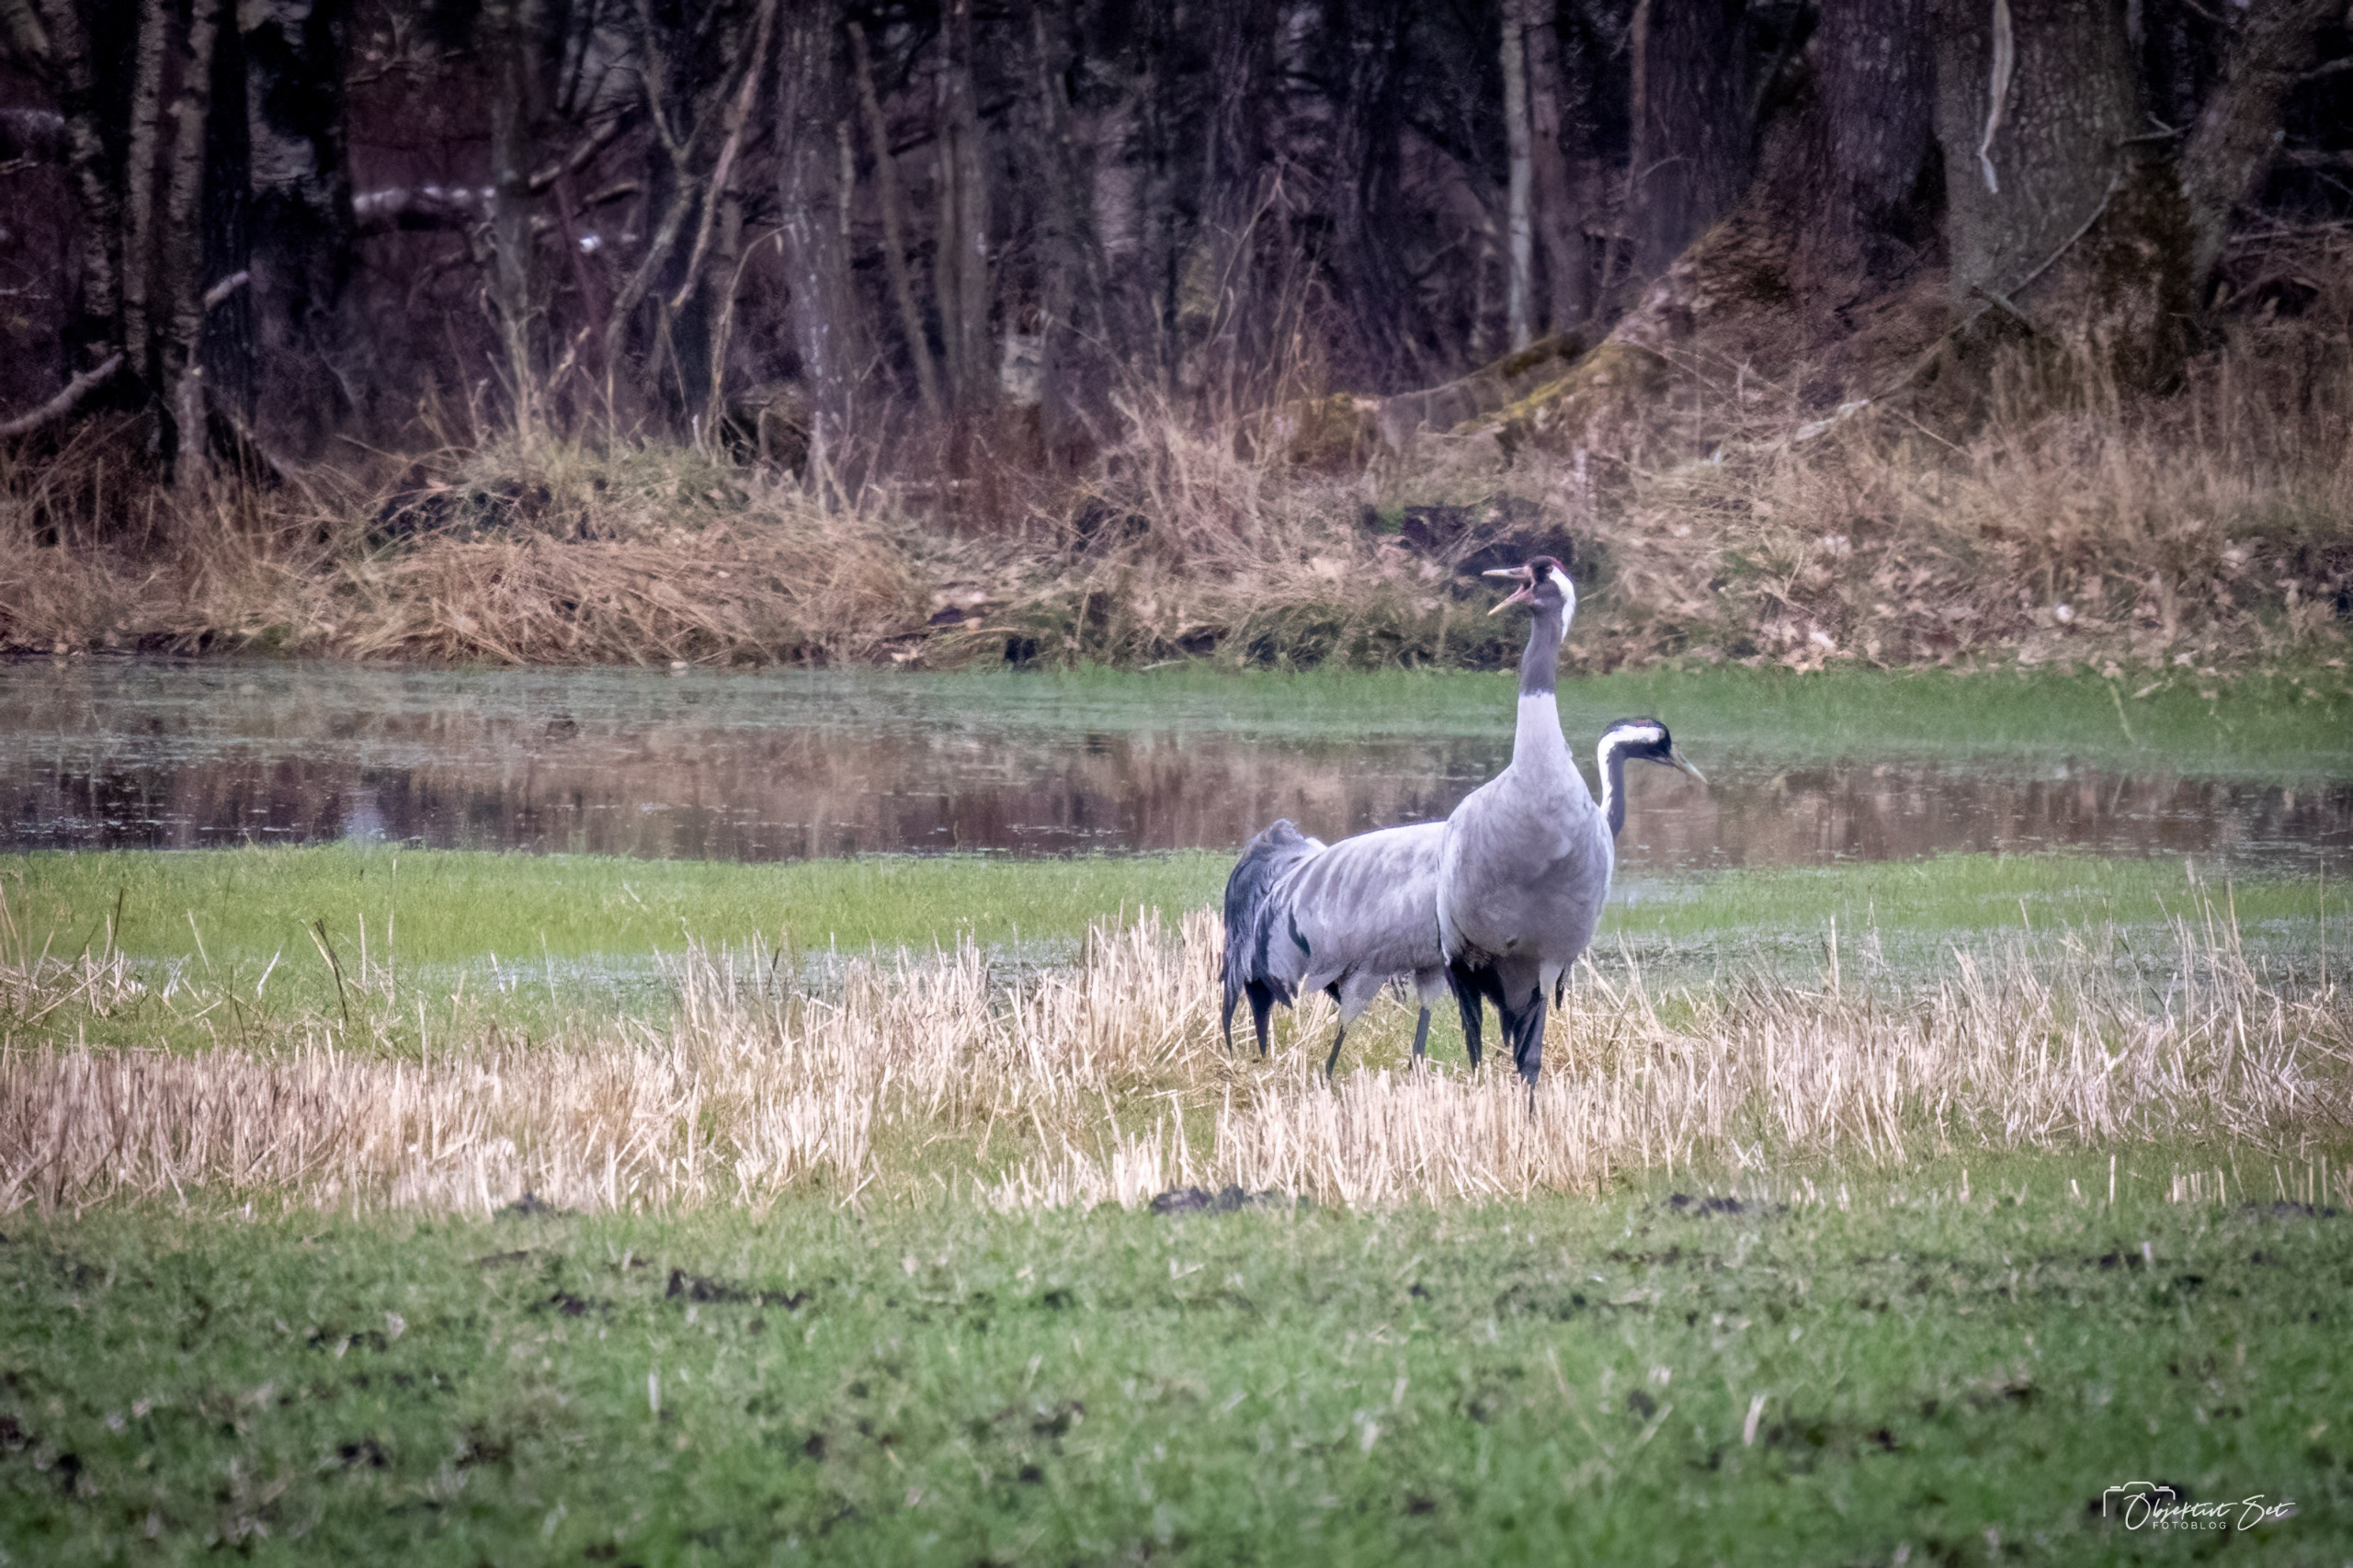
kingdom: Animalia
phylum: Chordata
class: Aves
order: Gruiformes
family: Gruidae
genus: Grus
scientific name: Grus grus
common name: Trane
